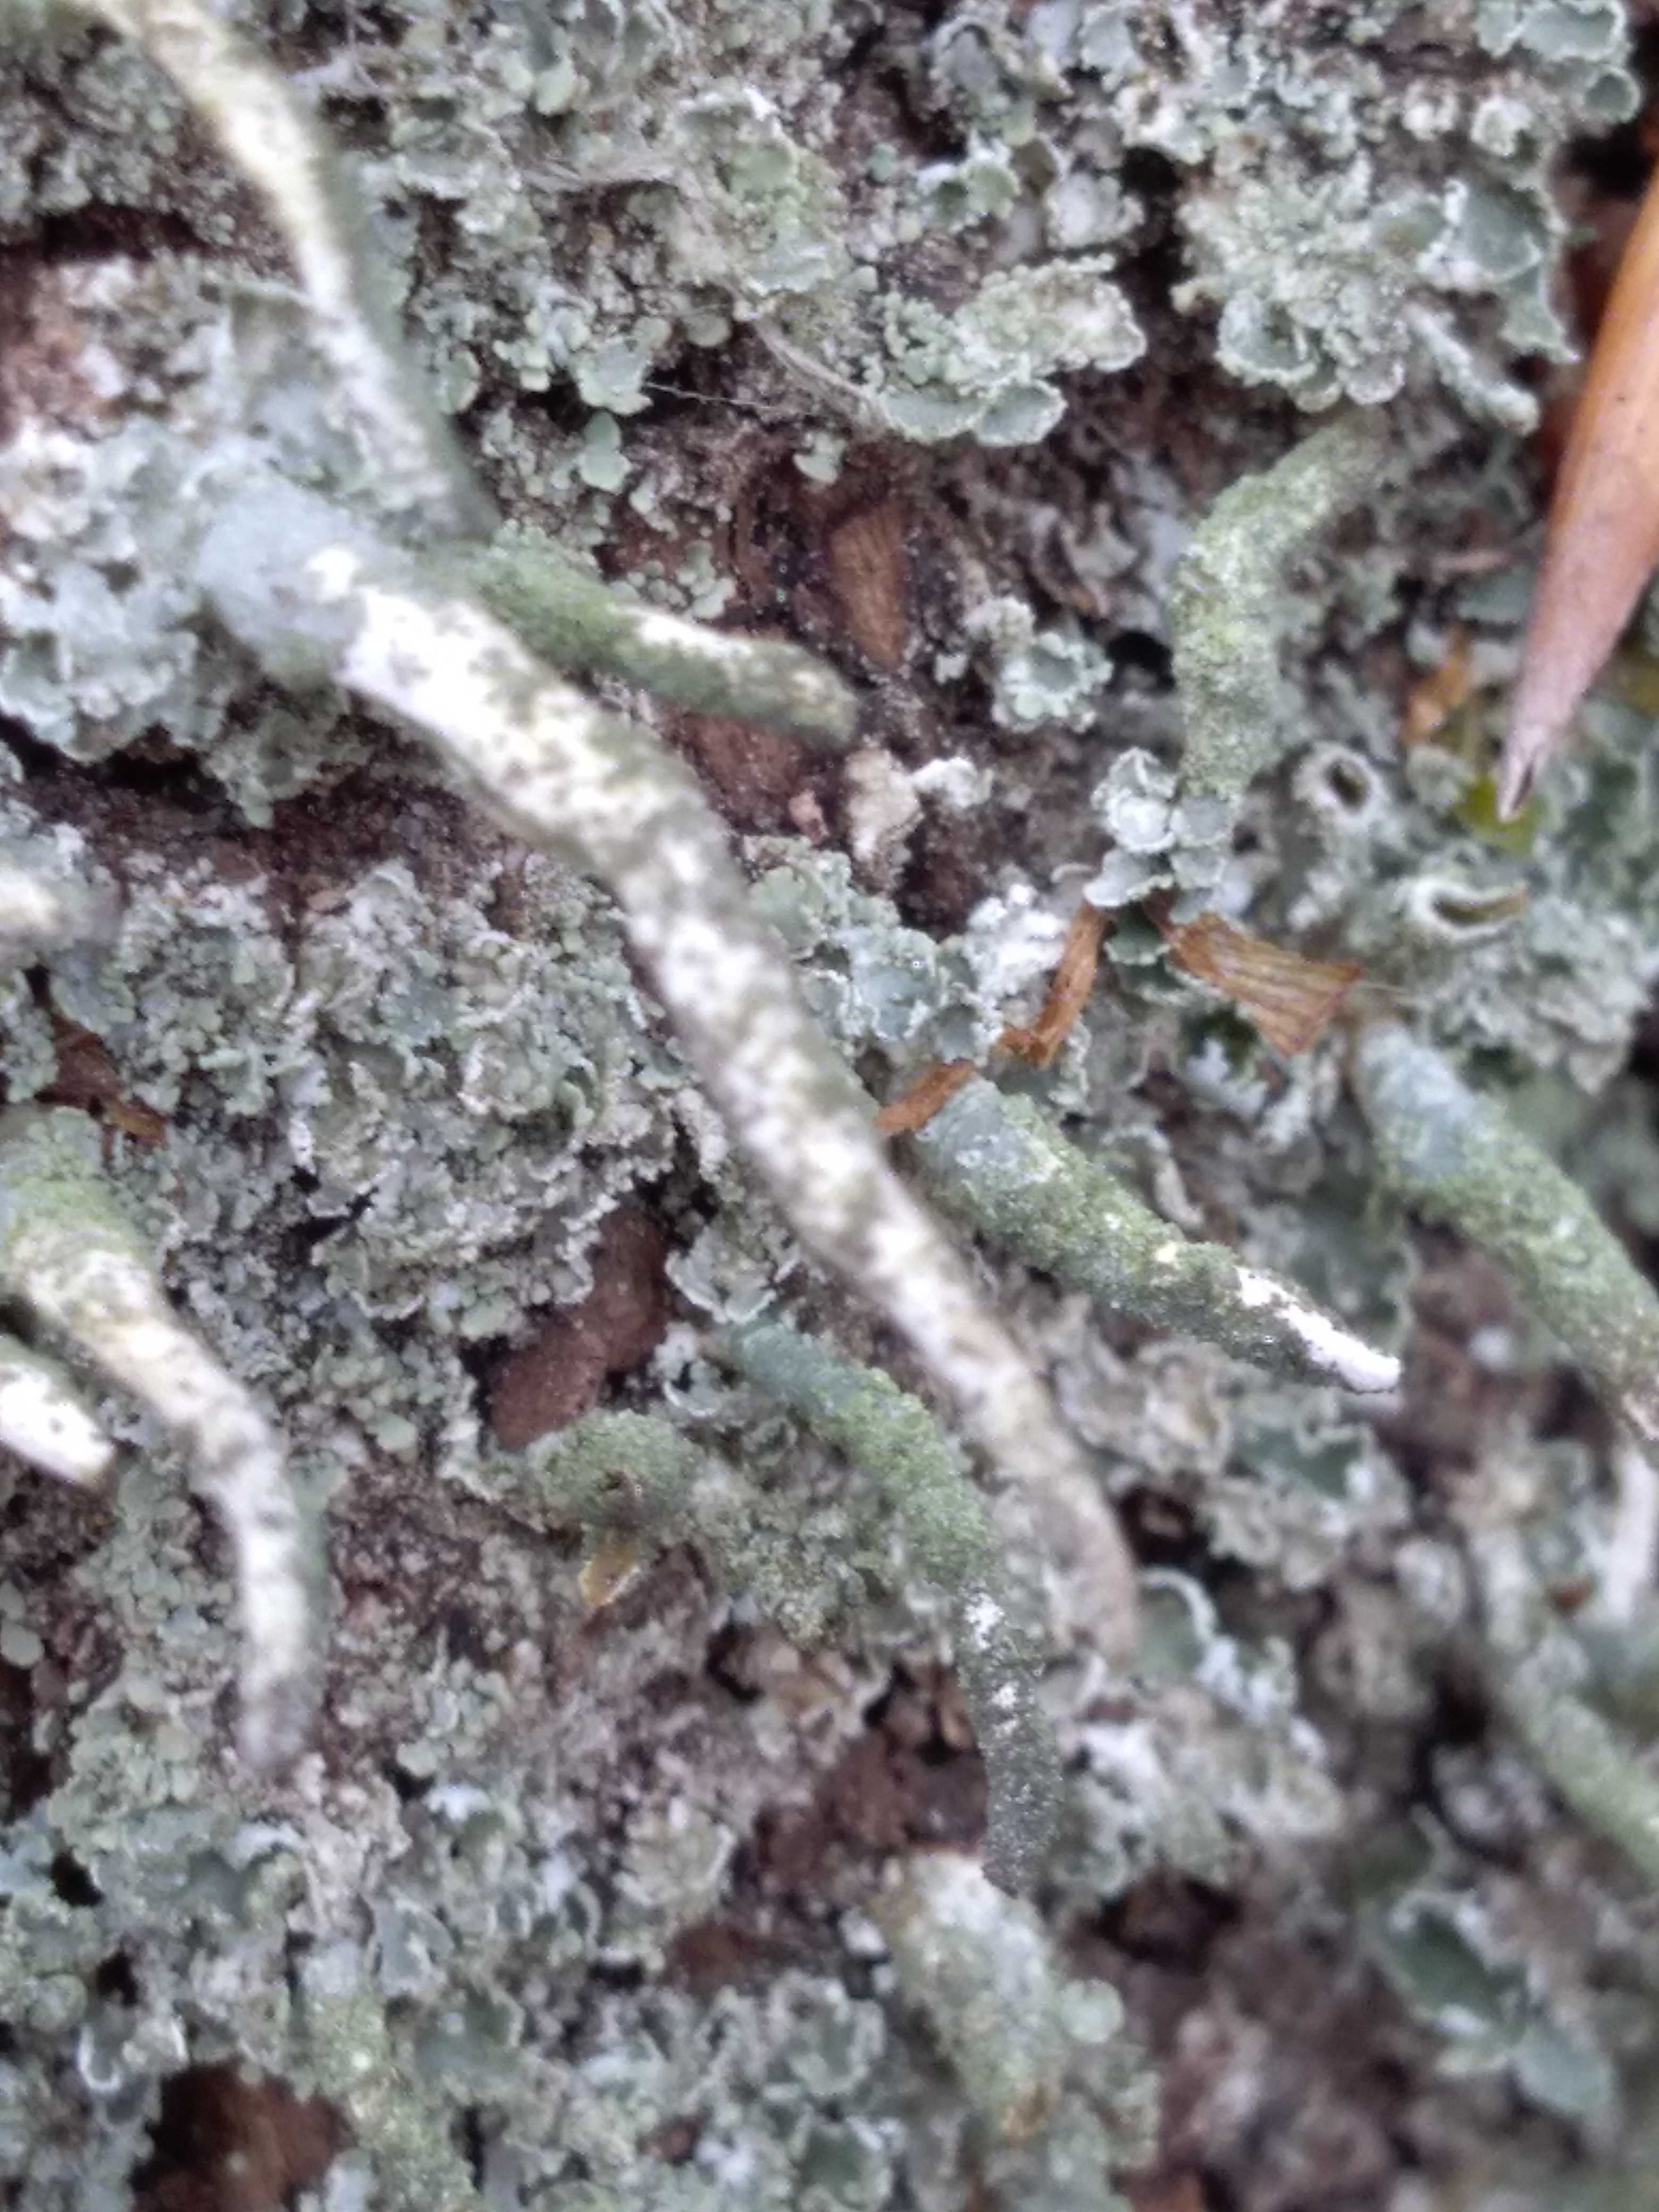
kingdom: Fungi
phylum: Ascomycota
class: Lecanoromycetes
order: Lecanorales
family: Cladoniaceae
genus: Cladonia
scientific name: Cladonia coniocraea
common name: træfods-bægerlav
